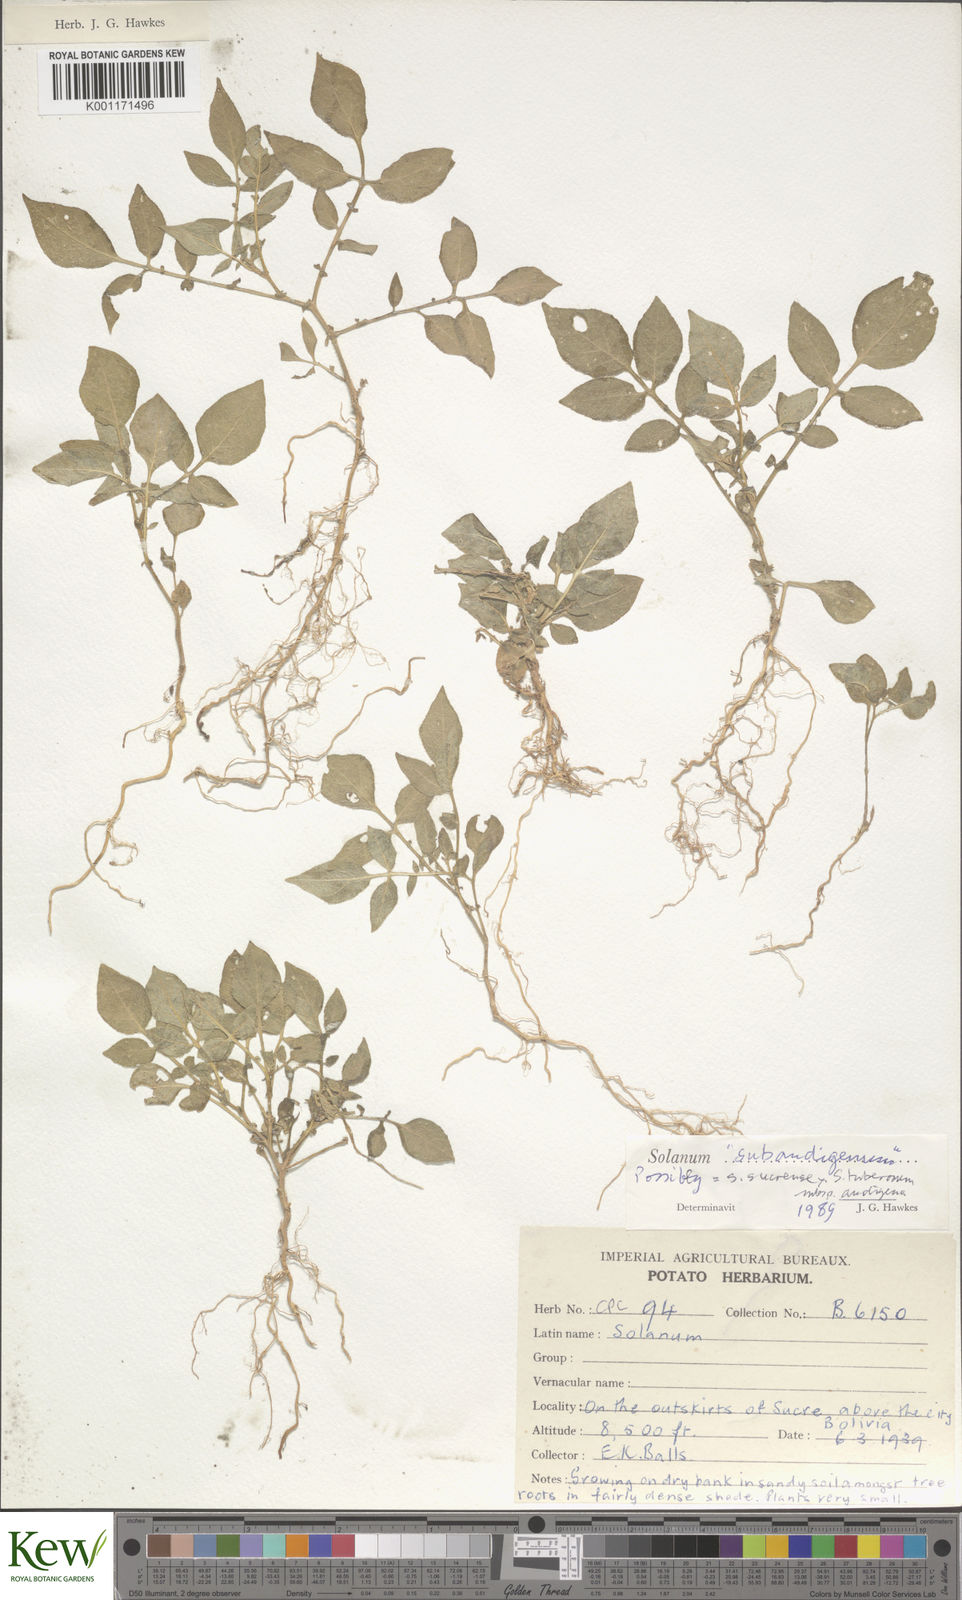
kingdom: Plantae
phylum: Tracheophyta
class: Magnoliopsida
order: Solanales
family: Solanaceae
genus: Solanum
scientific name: Solanum tuberosum
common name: Potato
